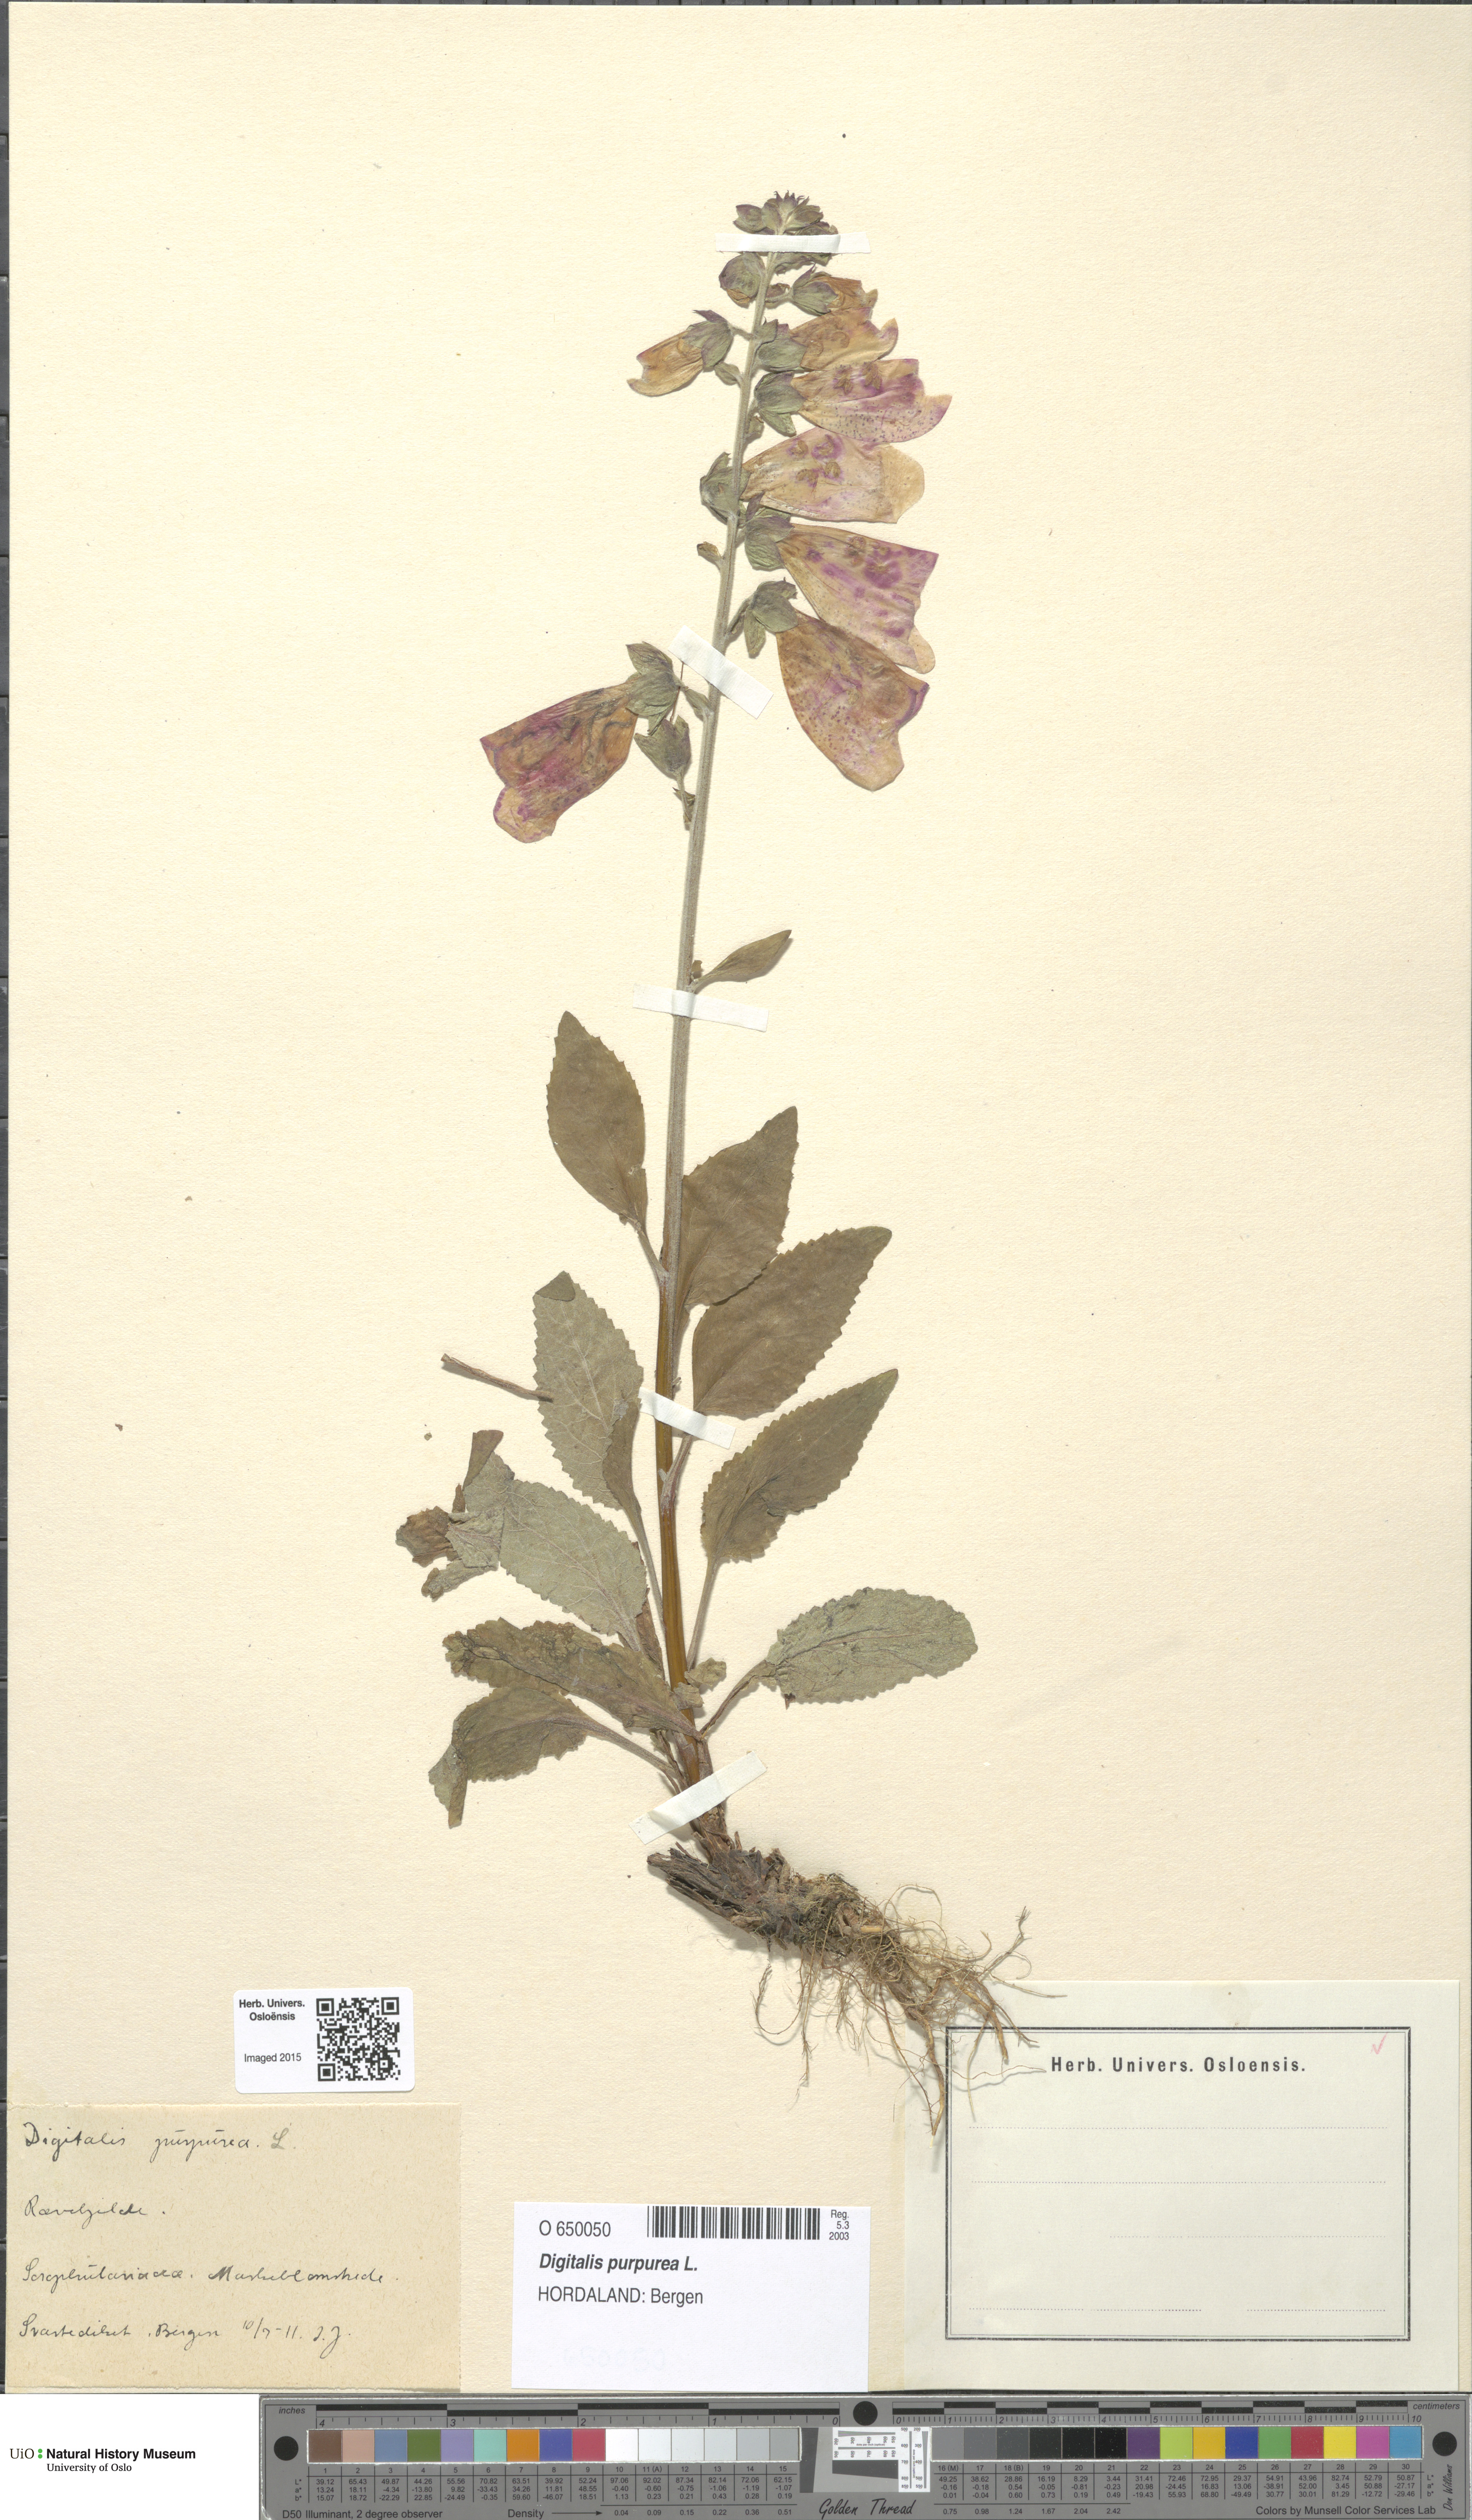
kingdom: Plantae
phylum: Tracheophyta
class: Magnoliopsida
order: Lamiales
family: Plantaginaceae
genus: Digitalis
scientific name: Digitalis purpurea
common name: Foxglove
